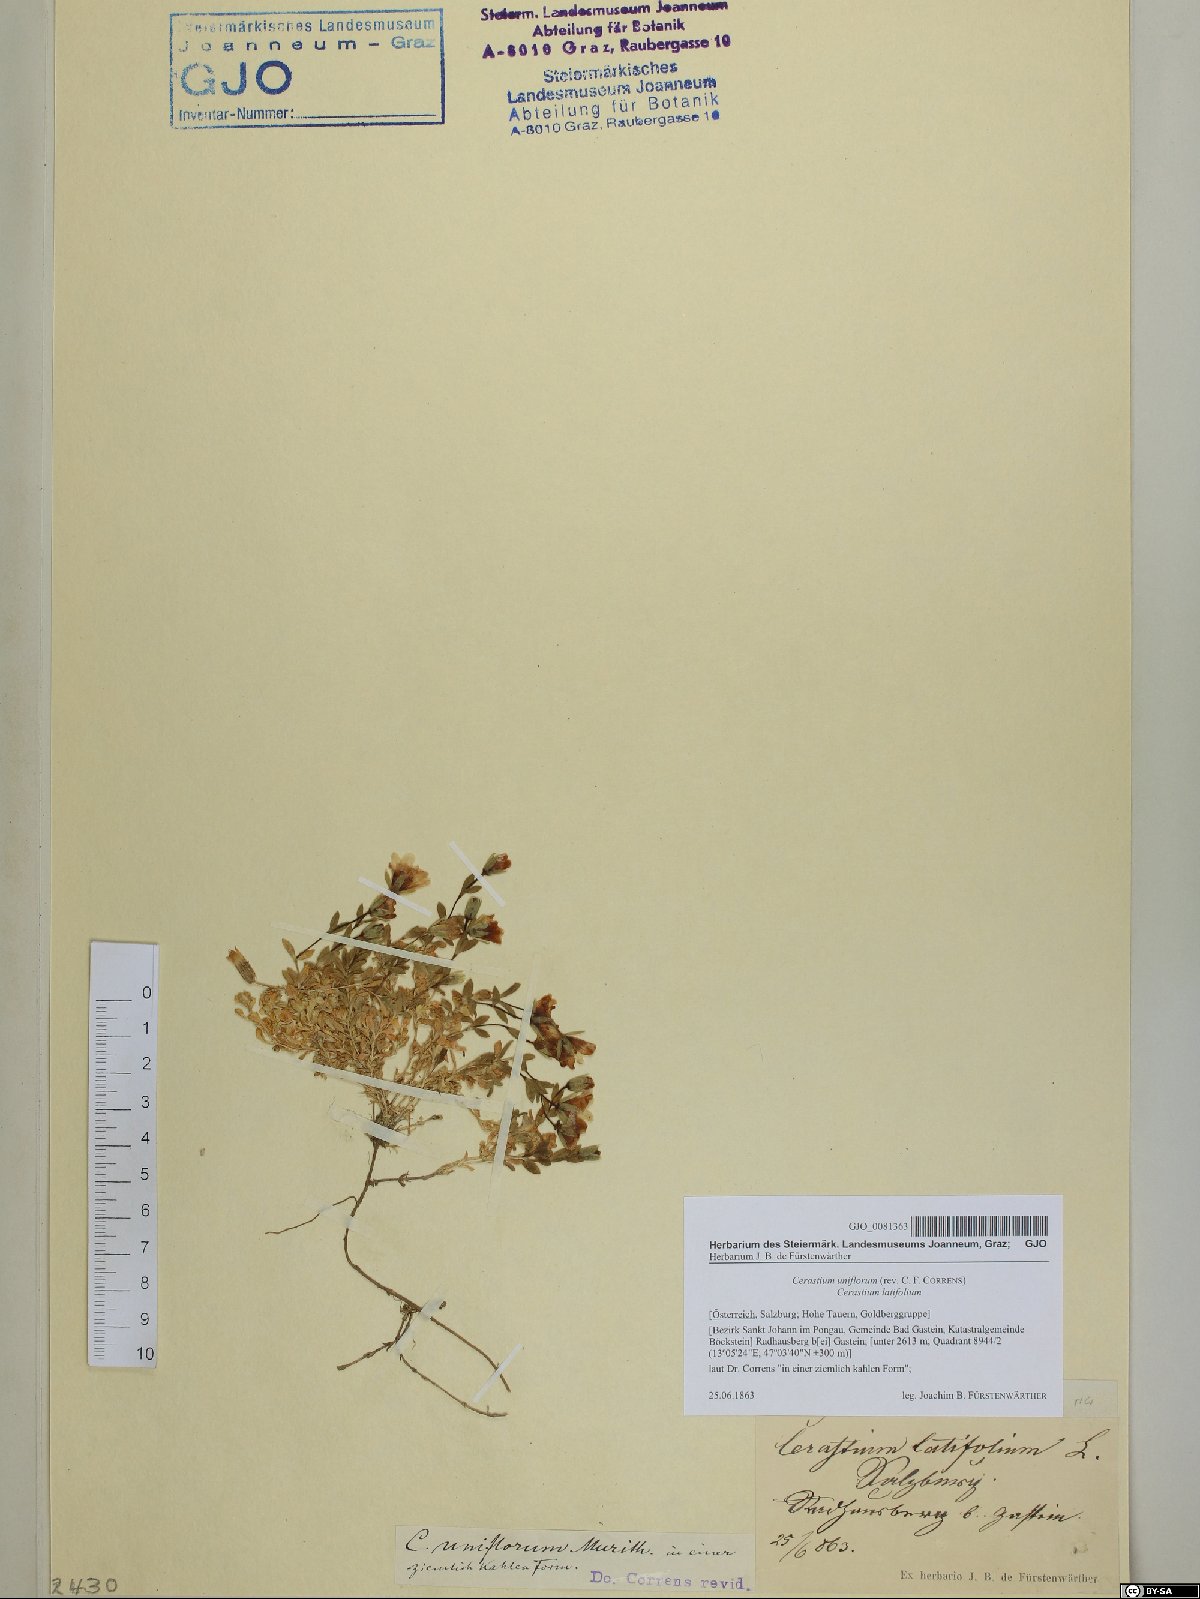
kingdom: Plantae
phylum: Tracheophyta
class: Magnoliopsida
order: Caryophyllales
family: Caryophyllaceae
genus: Cerastium
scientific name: Cerastium uniflorum
